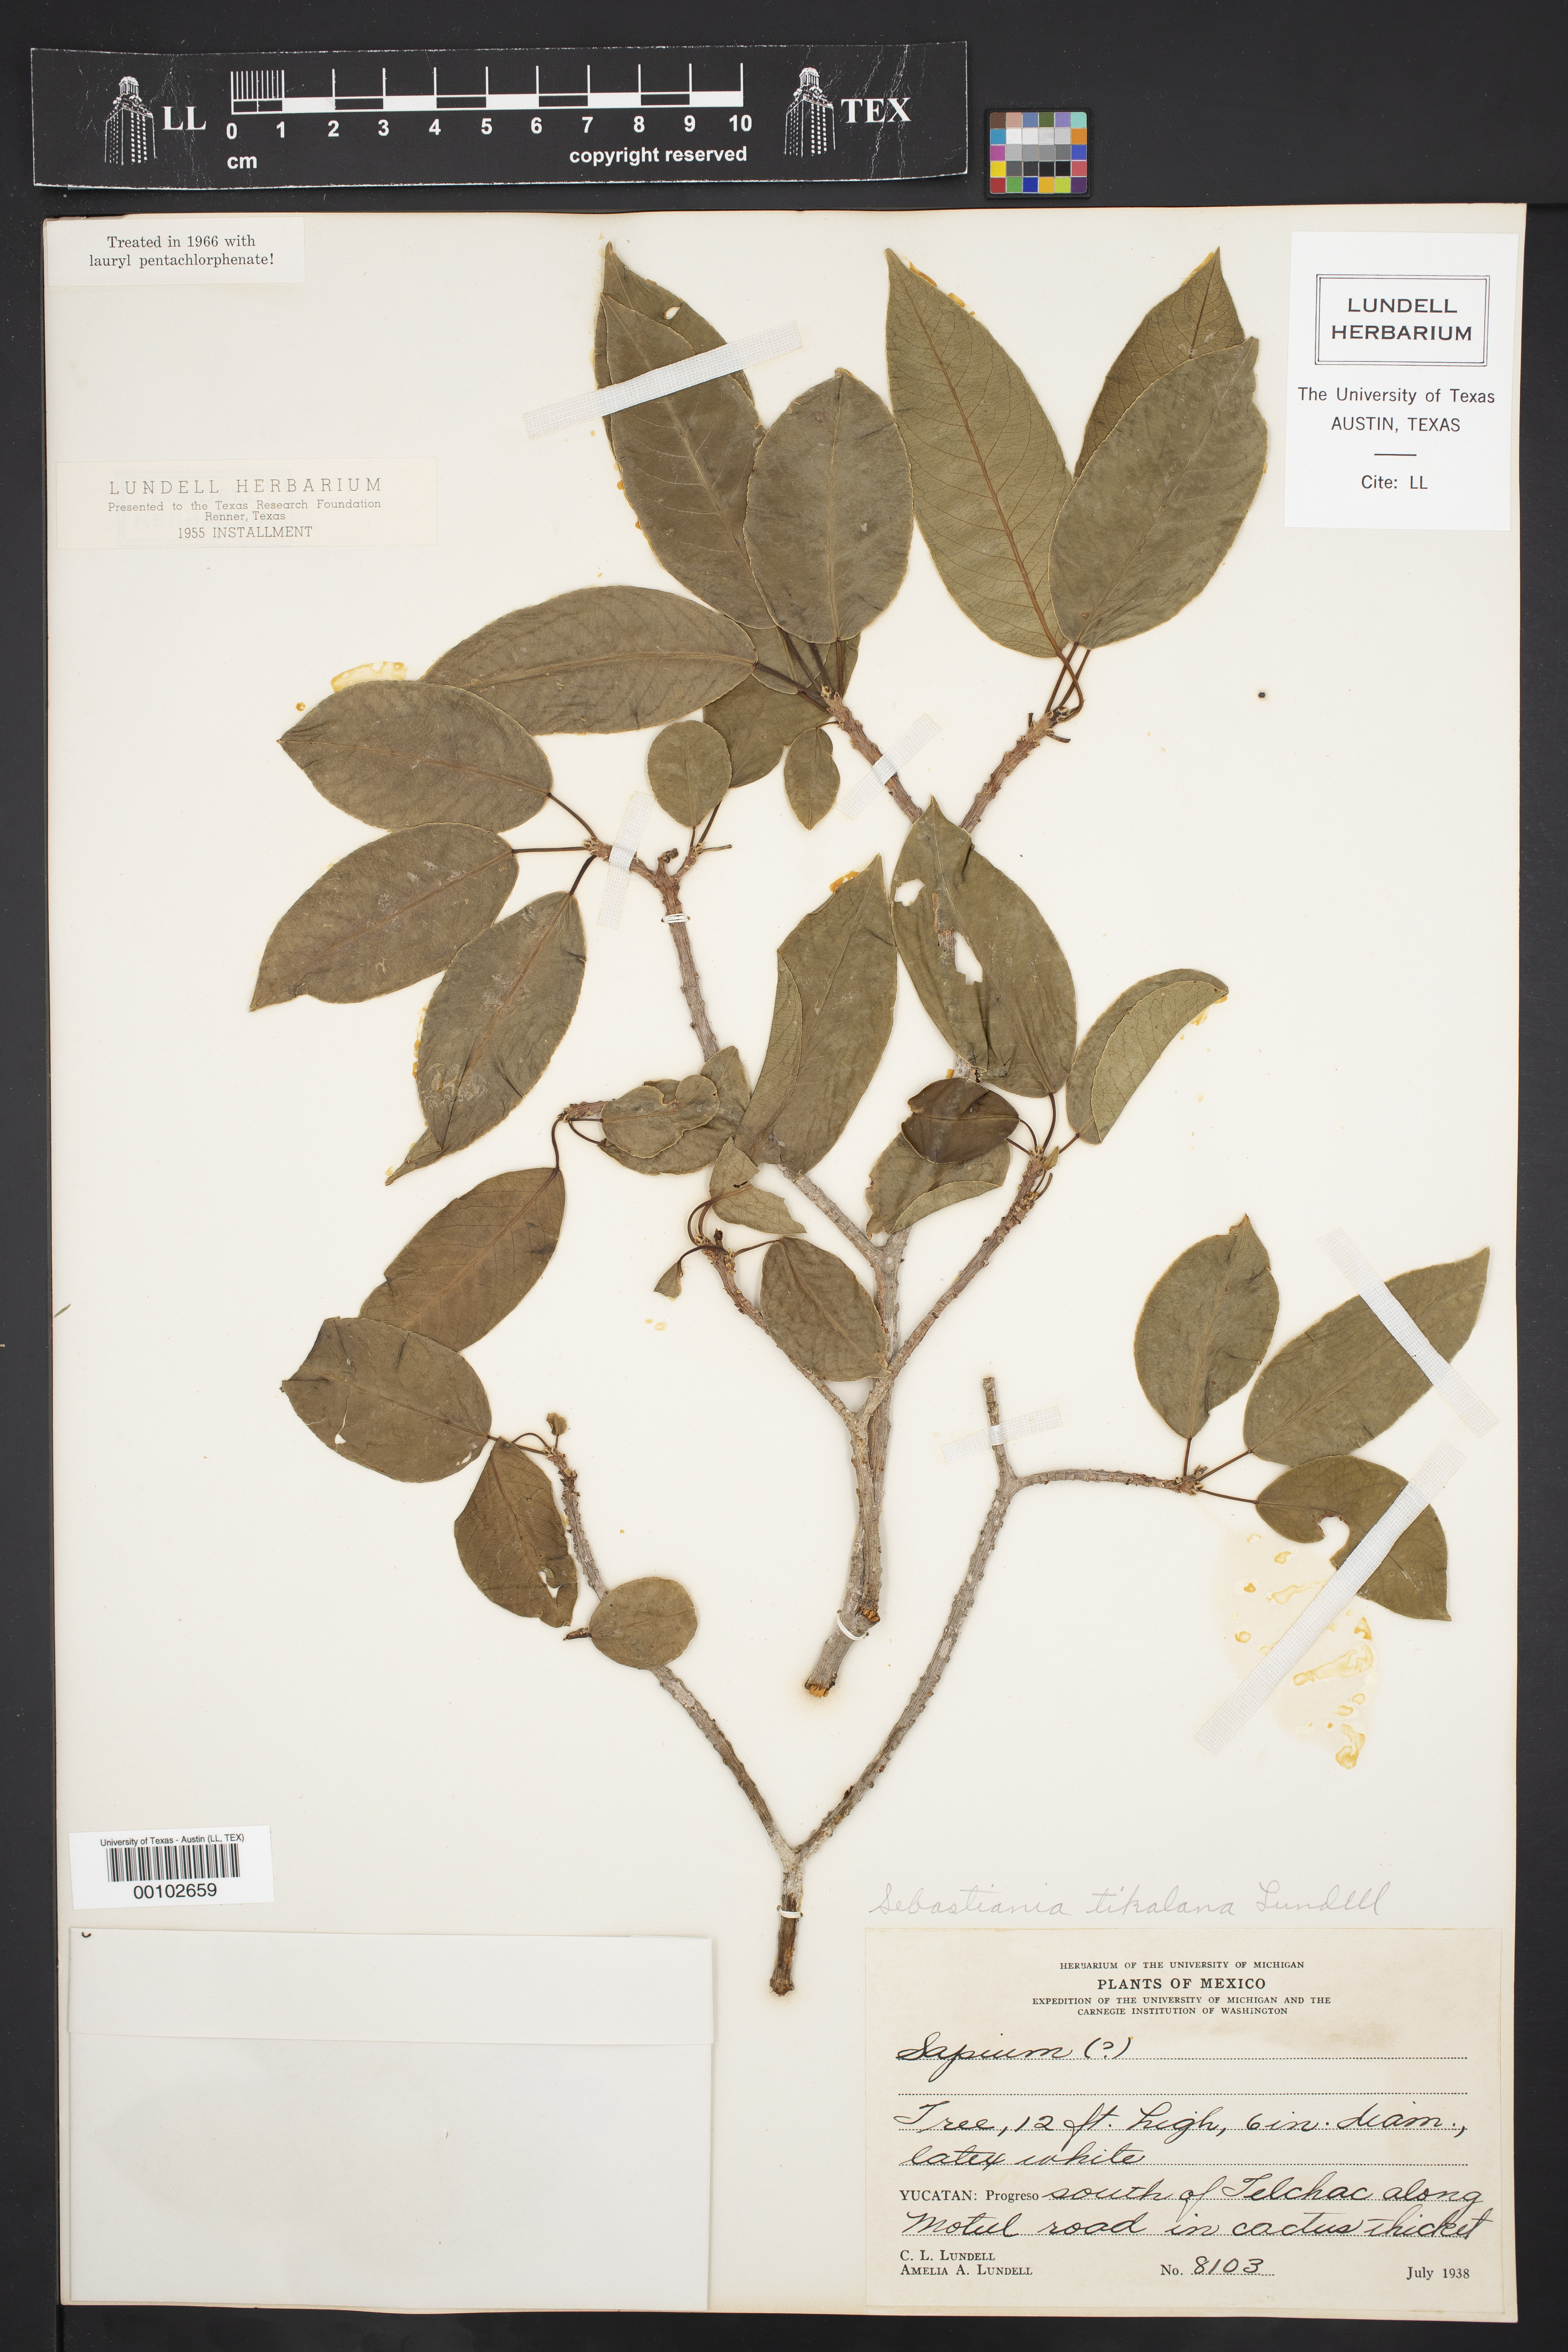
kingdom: Plantae
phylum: Tracheophyta
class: Magnoliopsida
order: Malpighiales
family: Euphorbiaceae
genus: Pleradenophora
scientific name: Pleradenophora tikalana
